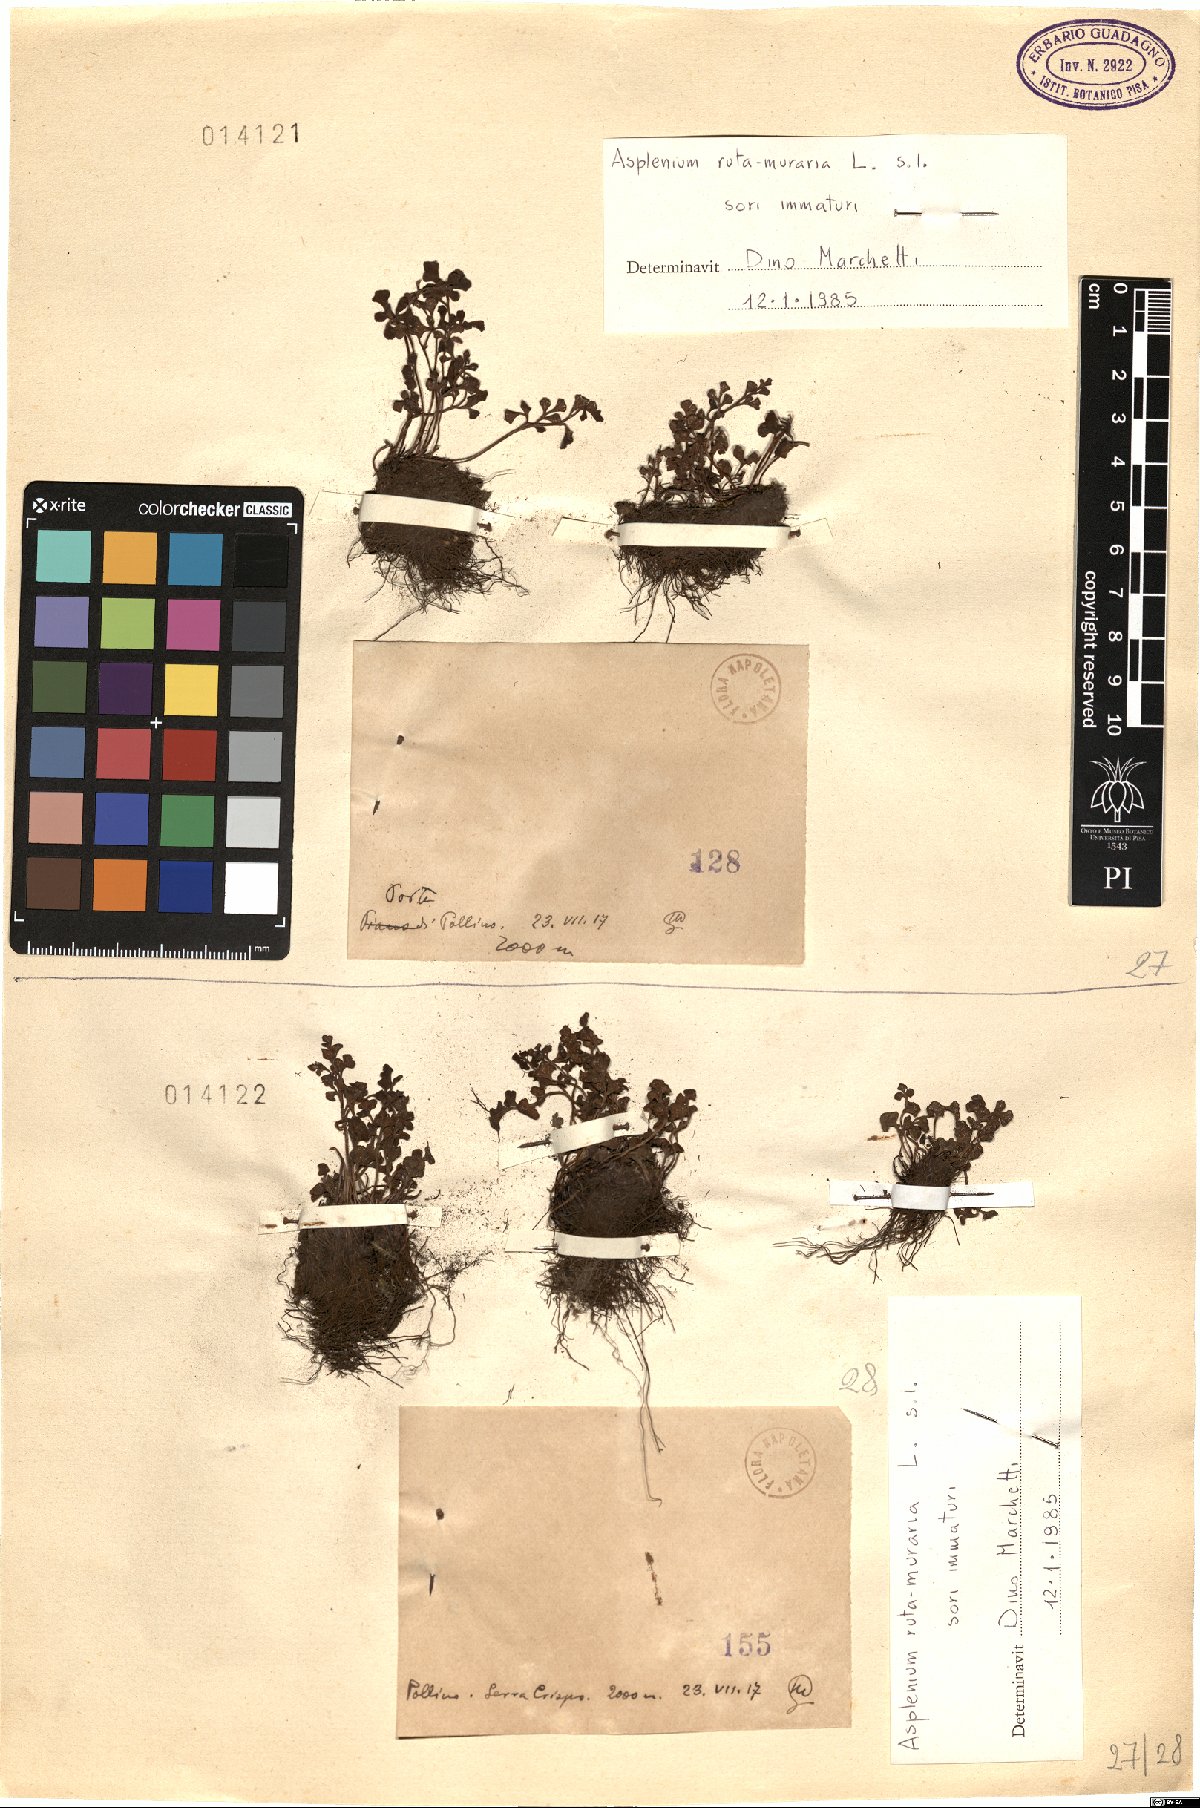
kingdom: Plantae
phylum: Tracheophyta
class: Polypodiopsida
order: Polypodiales
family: Aspleniaceae
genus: Asplenium
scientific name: Asplenium ruta-muraria
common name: Wall-rue
